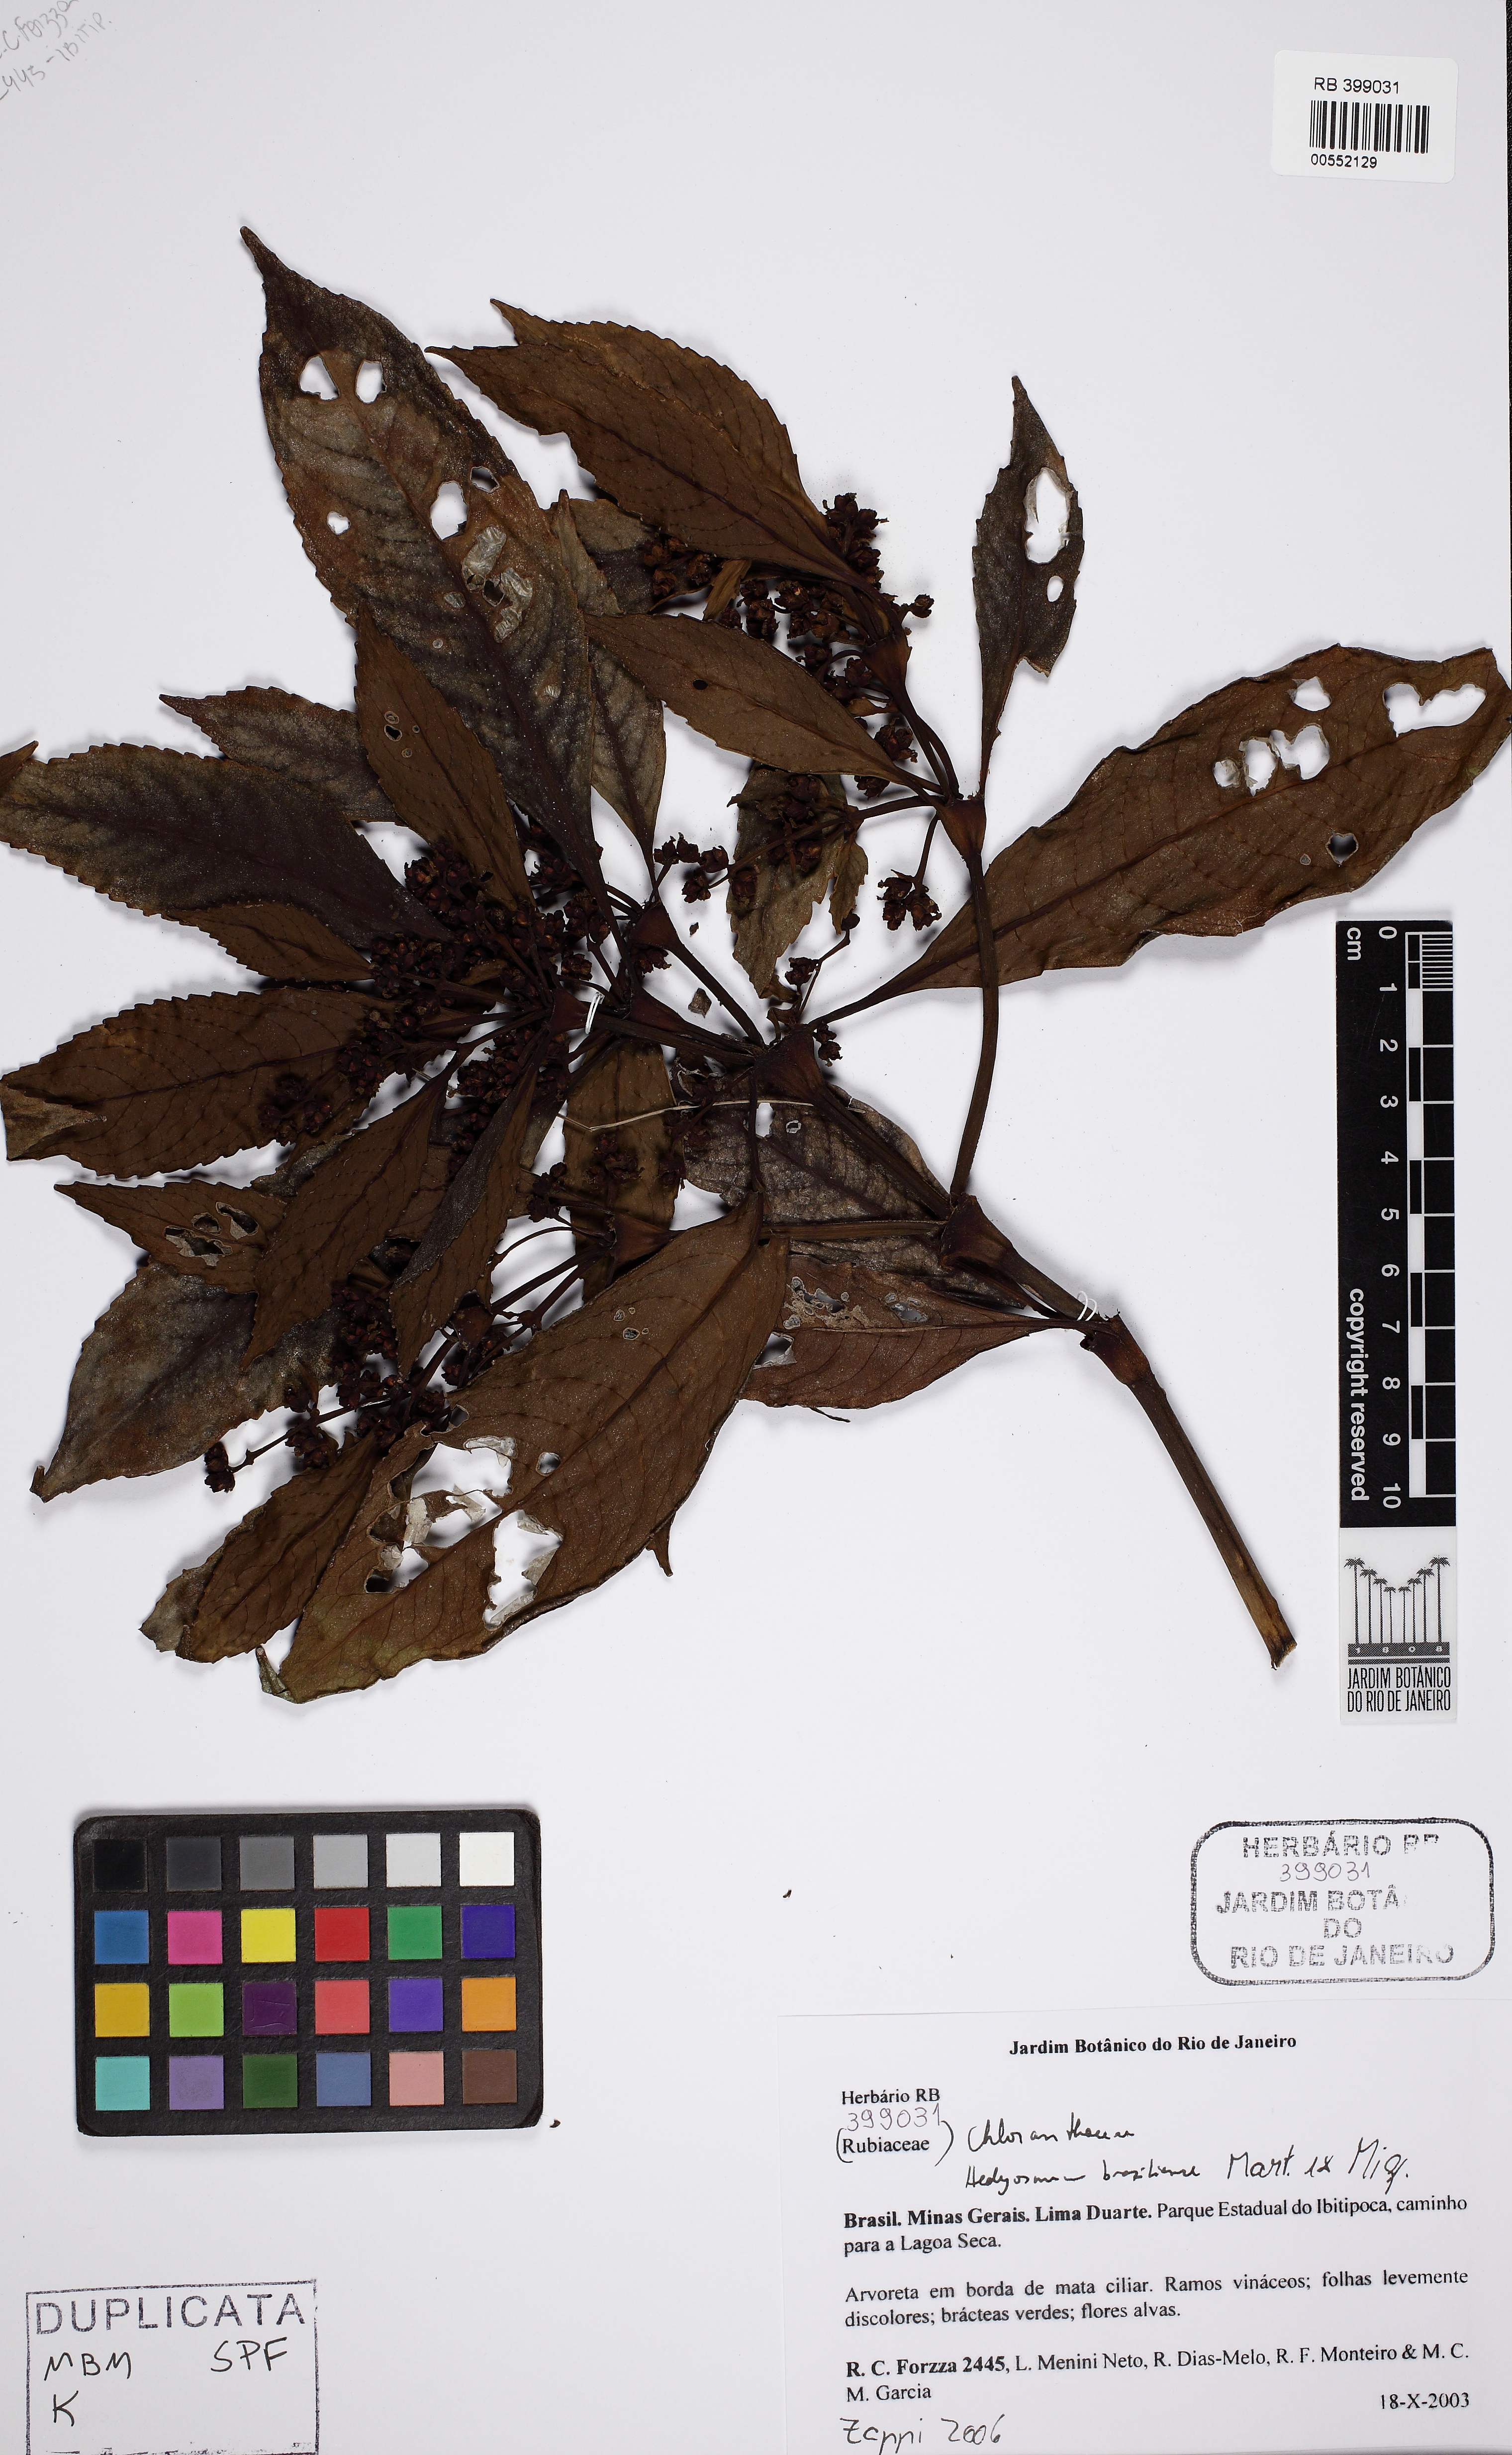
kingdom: Plantae
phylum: Tracheophyta
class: Magnoliopsida
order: Chloranthales
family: Chloranthaceae
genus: Hedyosmum
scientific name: Hedyosmum brasiliense
